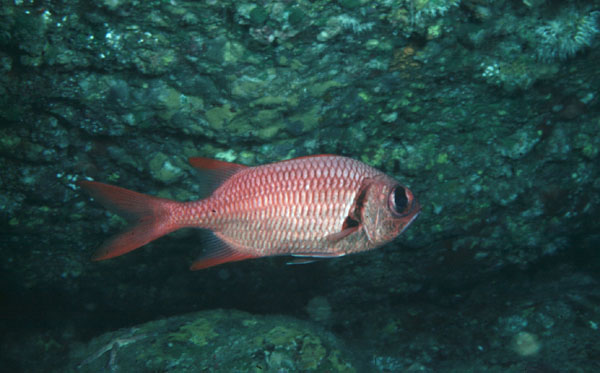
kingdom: Animalia
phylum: Chordata
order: Beryciformes
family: Holocentridae
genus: Myripristis
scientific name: Myripristis amaena
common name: Brick soldierfish
